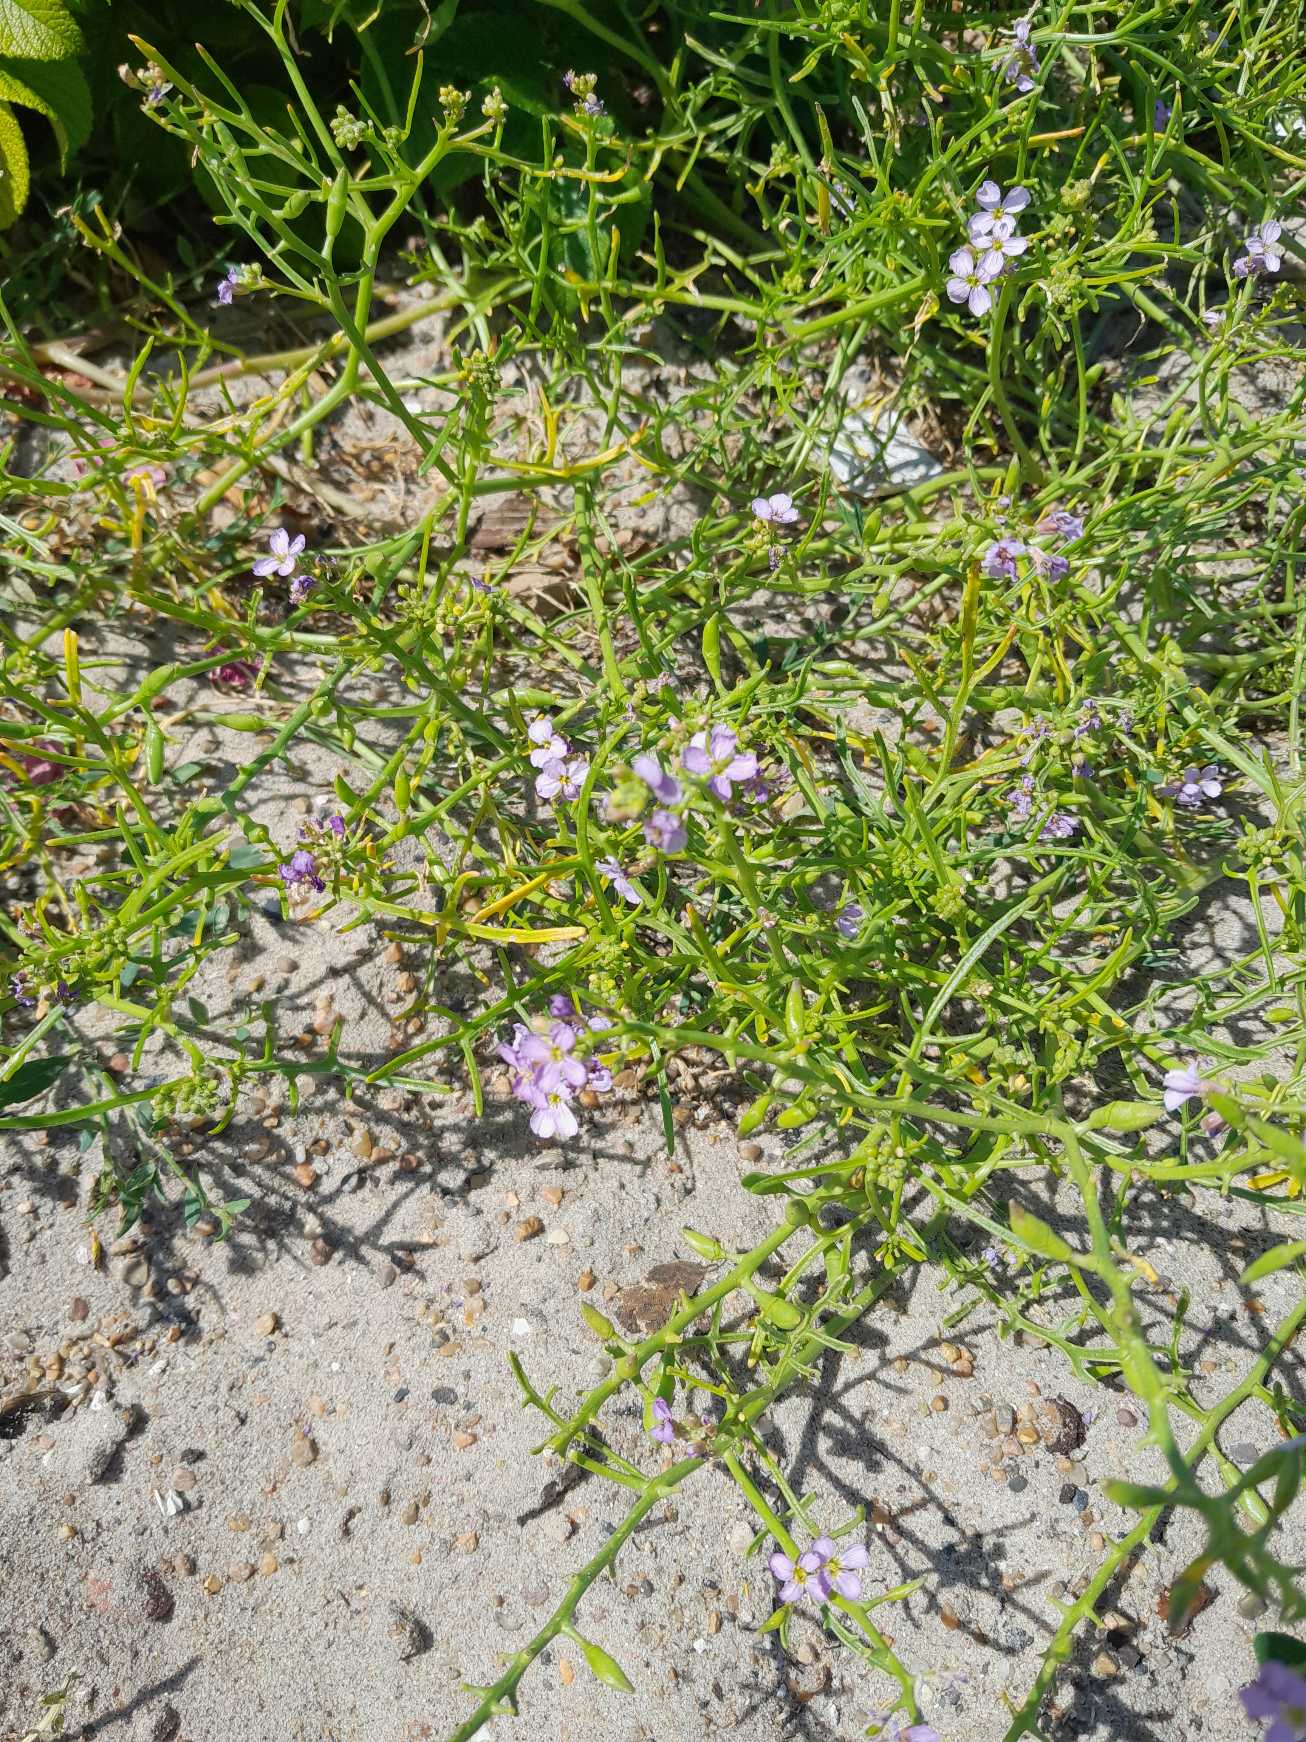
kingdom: Plantae
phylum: Tracheophyta
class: Magnoliopsida
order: Brassicales
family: Brassicaceae
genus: Cakile
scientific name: Cakile maritima
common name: Strandsennep
